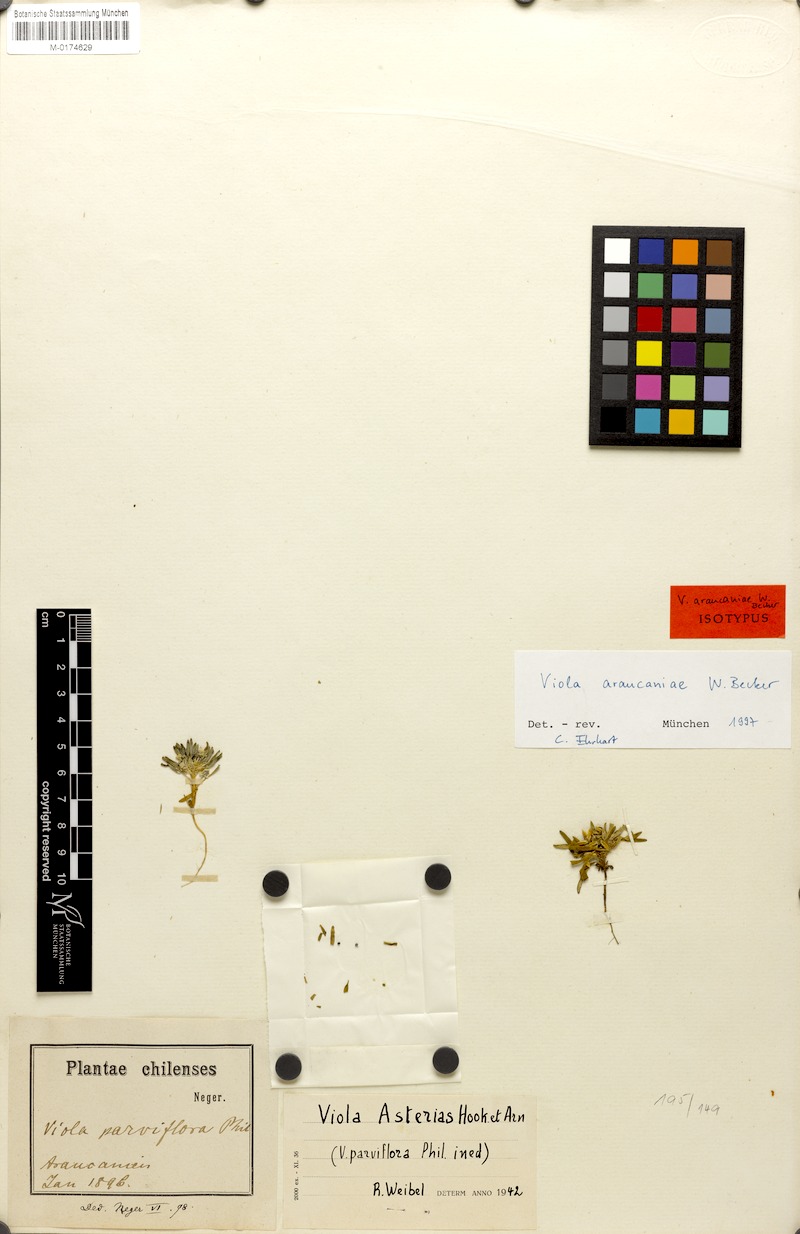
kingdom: Plantae
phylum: Tracheophyta
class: Magnoliopsida
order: Malpighiales
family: Violaceae
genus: Viola
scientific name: Viola araucaniae
